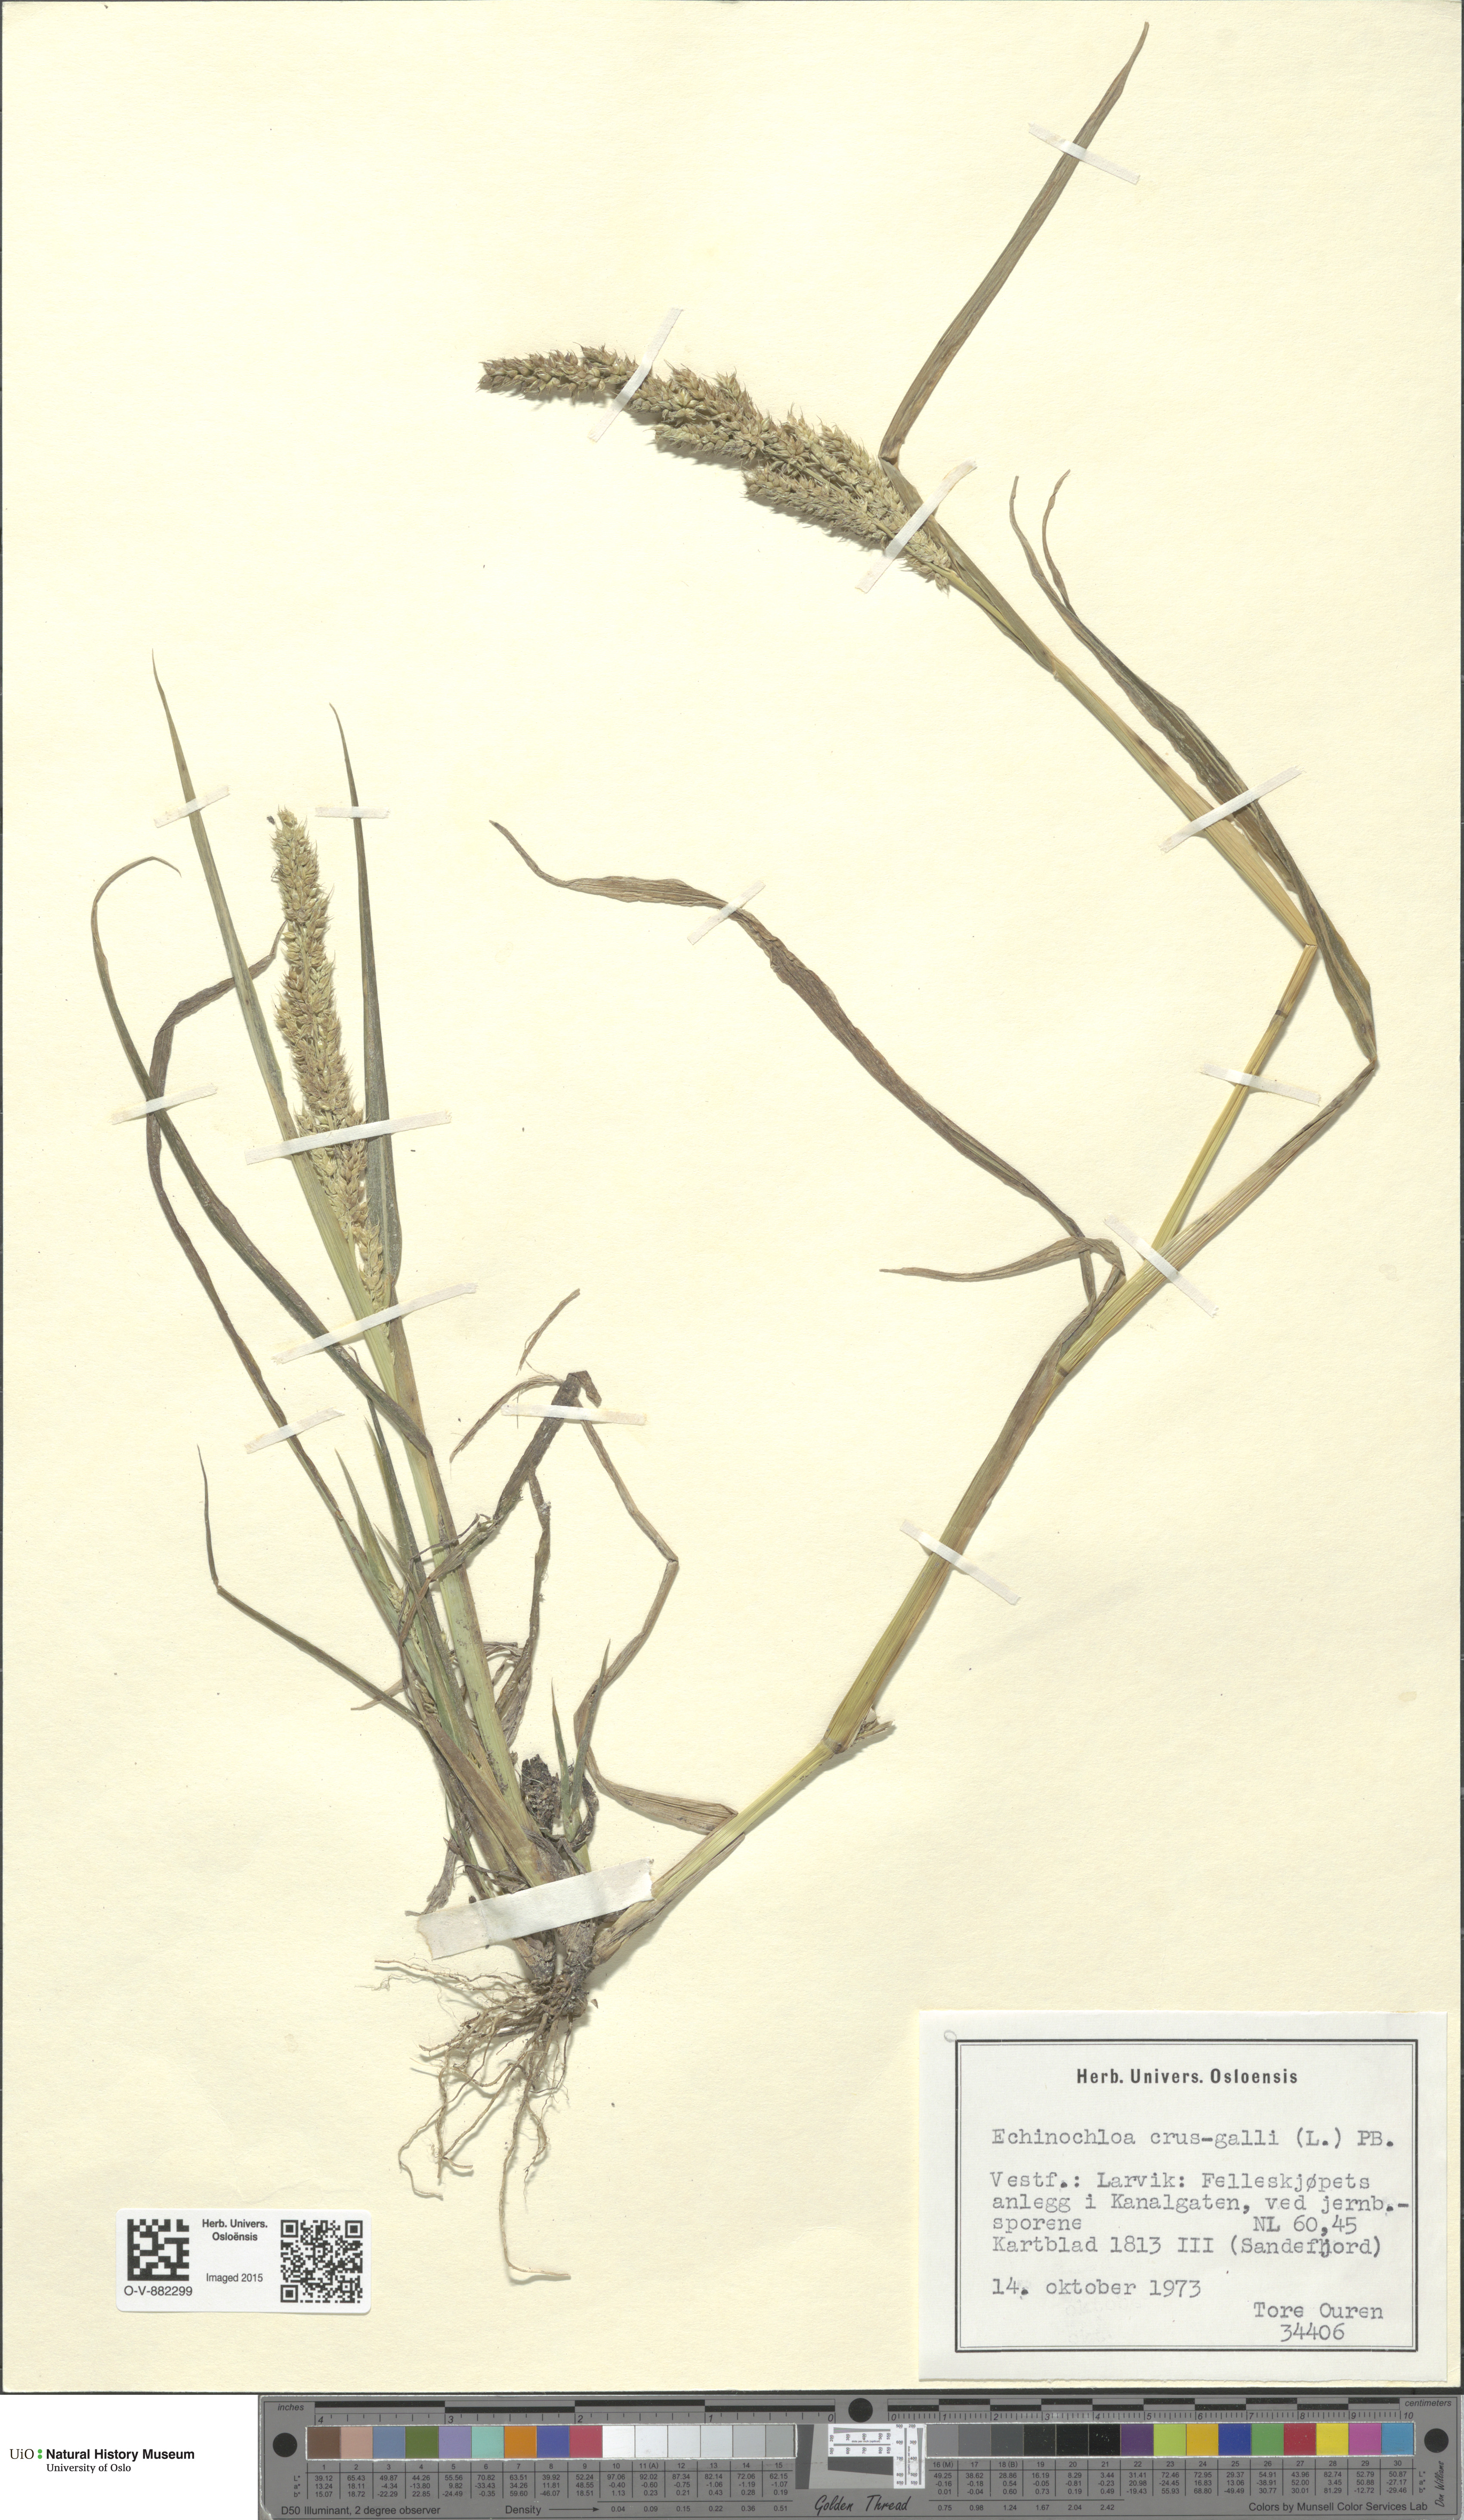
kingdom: Plantae
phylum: Tracheophyta
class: Liliopsida
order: Poales
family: Poaceae
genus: Echinochloa
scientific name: Echinochloa crus-galli
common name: Cockspur
